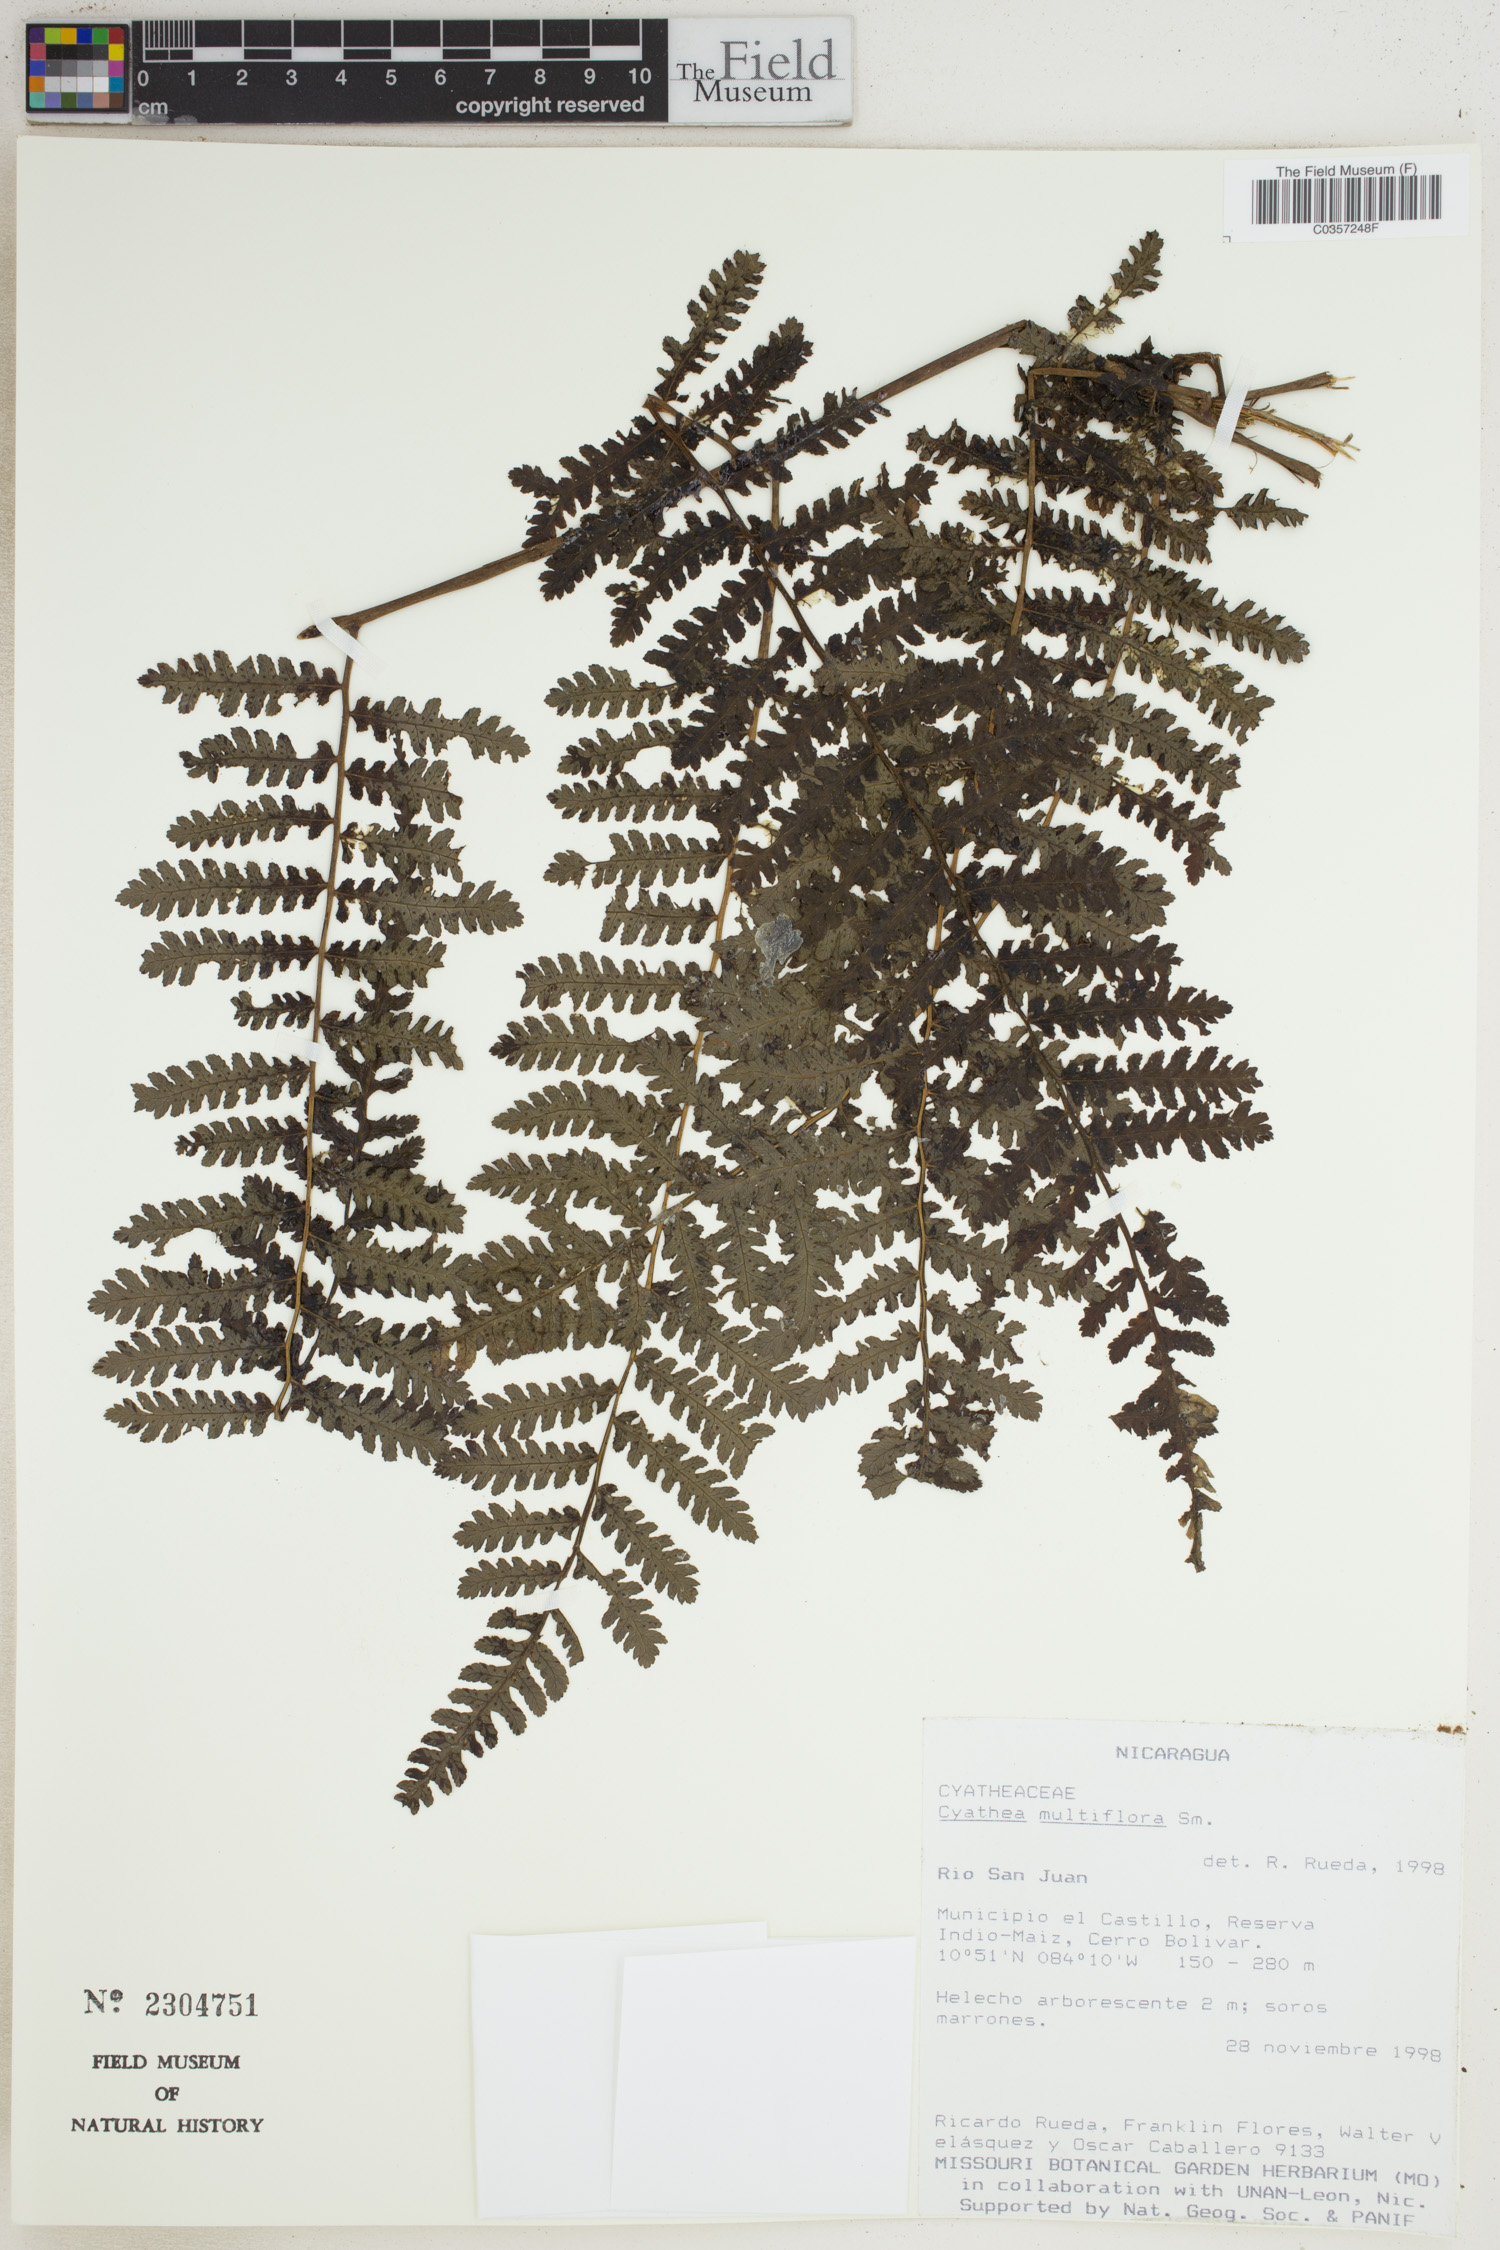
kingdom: Plantae
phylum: Tracheophyta
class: Polypodiopsida
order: Cyatheales
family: Cyatheaceae
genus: Cyathea
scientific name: Cyathea multiflora
